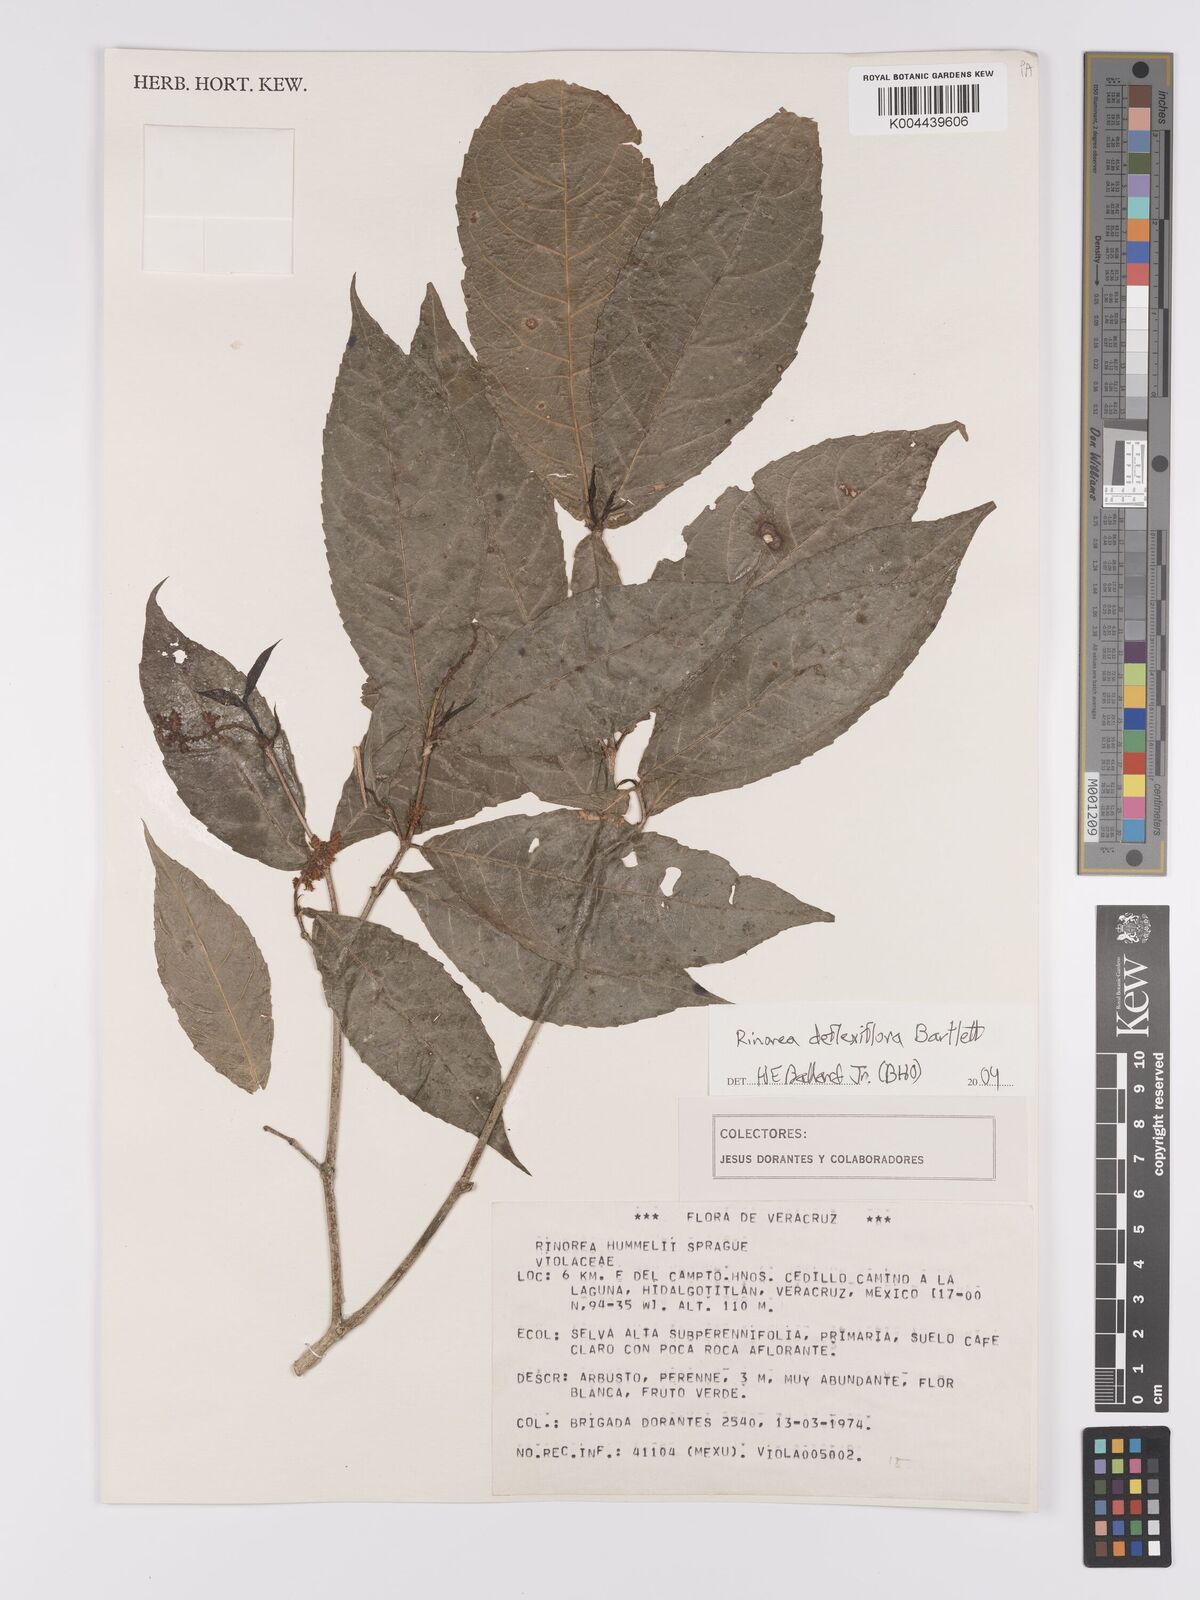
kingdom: Plantae
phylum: Tracheophyta
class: Magnoliopsida
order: Malpighiales
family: Violaceae
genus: Rinorea
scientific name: Rinorea deflexiflora
